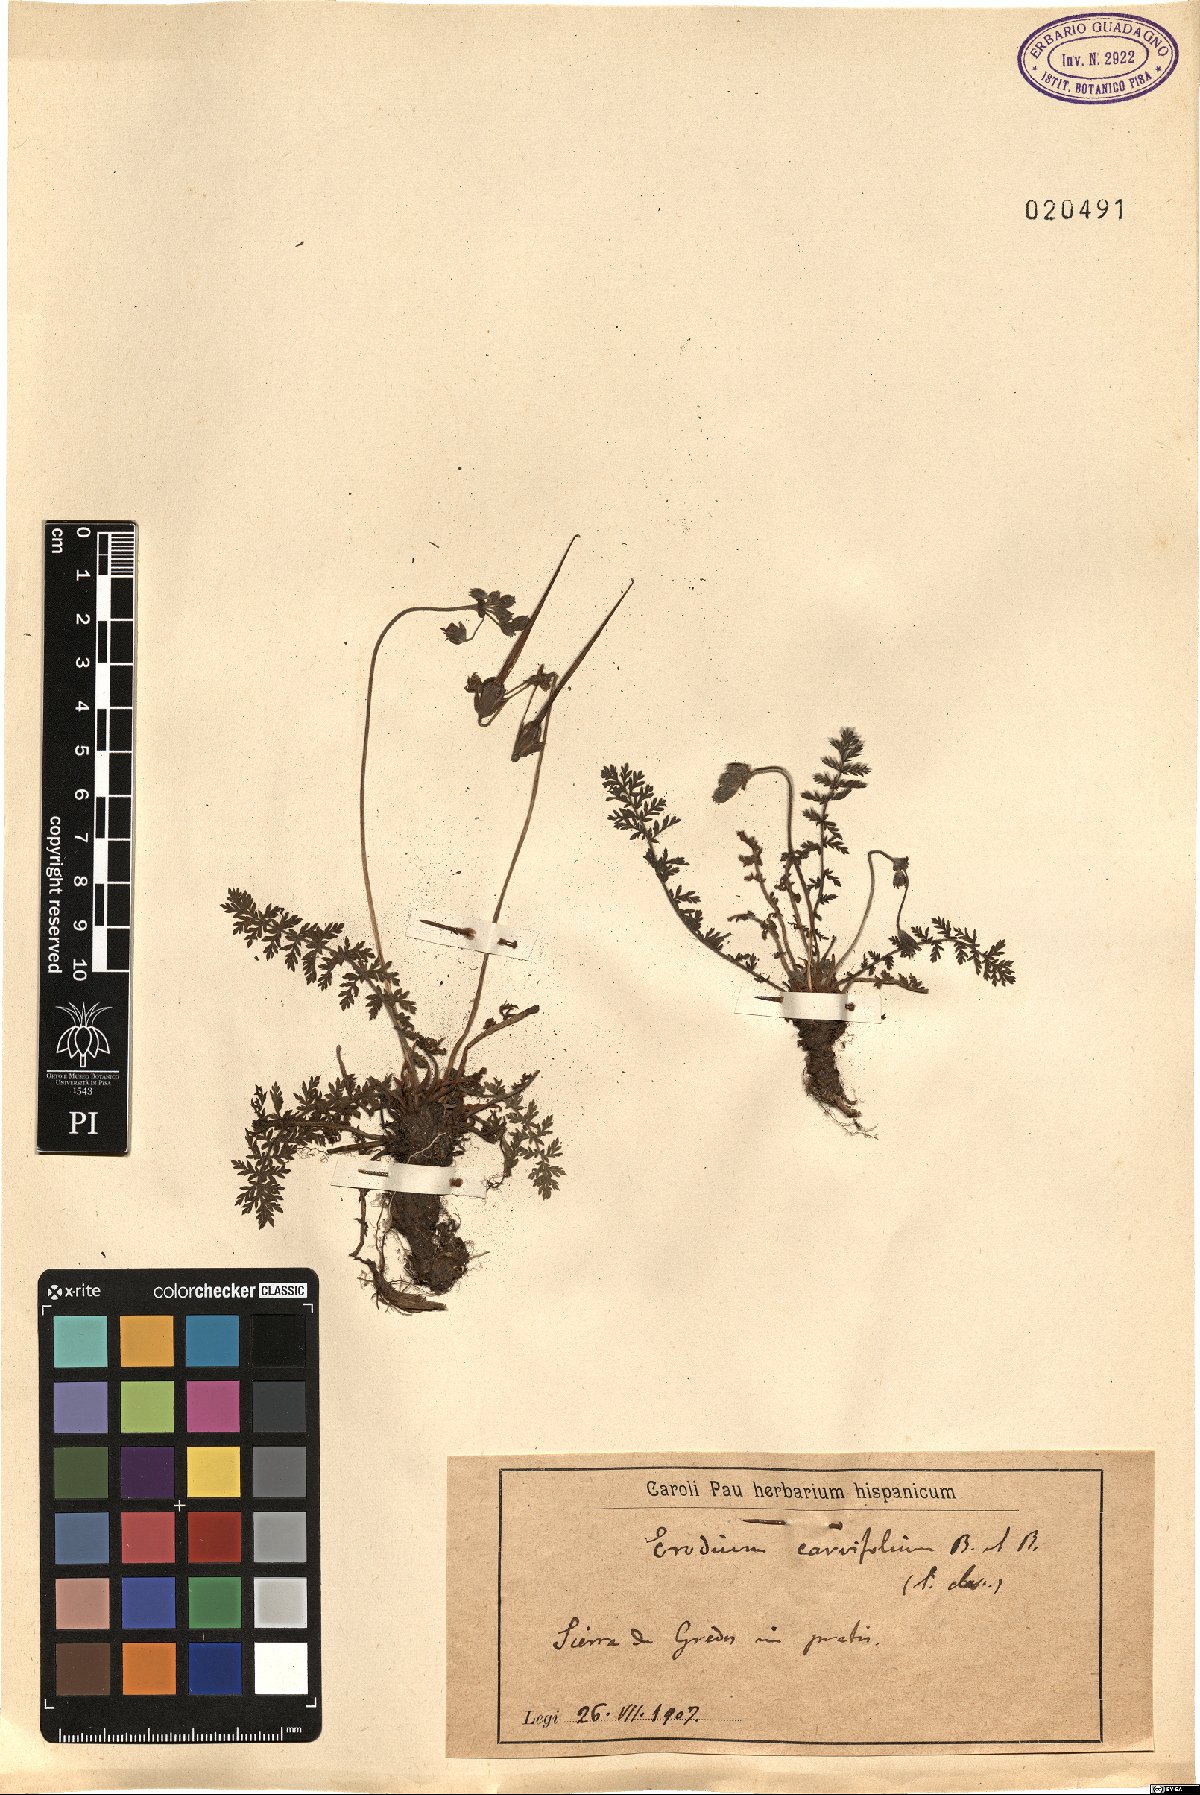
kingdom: Plantae
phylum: Tracheophyta
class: Magnoliopsida
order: Geraniales
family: Geraniaceae
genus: Erodium
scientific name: Erodium carvifolium
